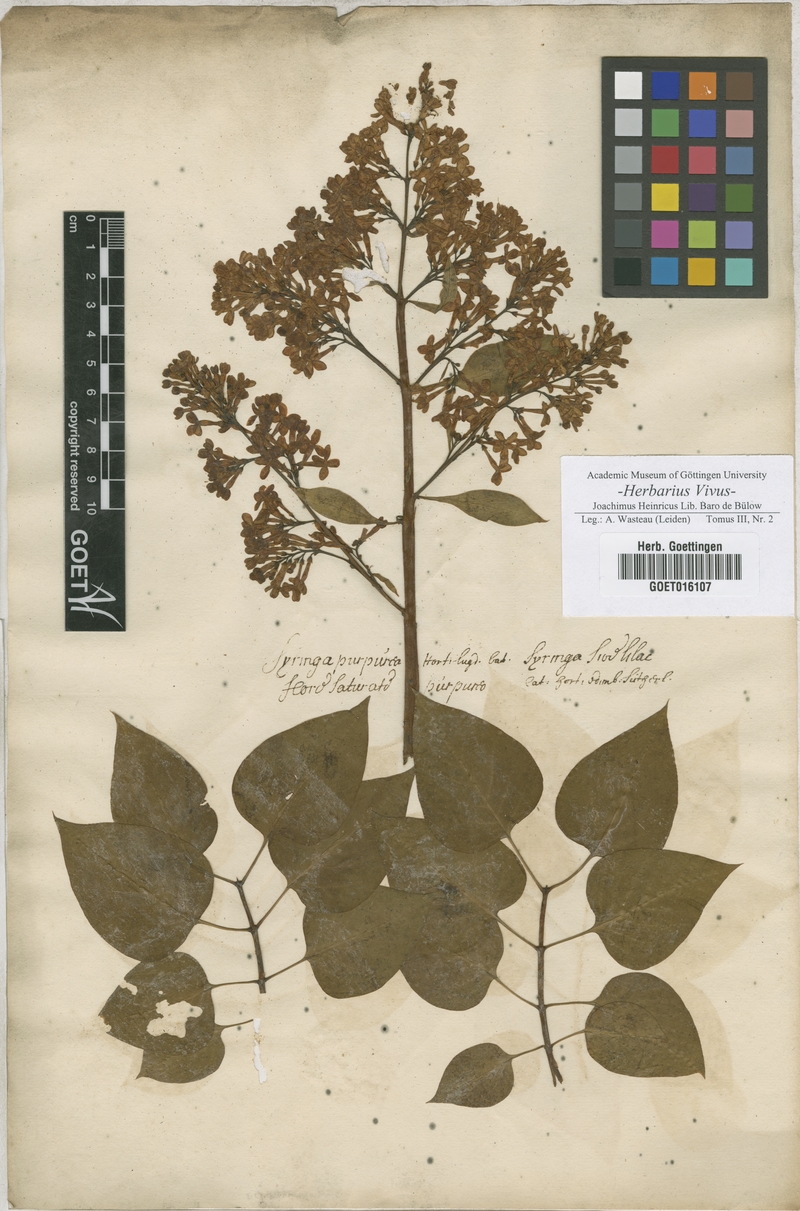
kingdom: Plantae
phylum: Tracheophyta
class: Magnoliopsida
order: Lamiales
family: Oleaceae
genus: Syringa
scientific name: Syringa
